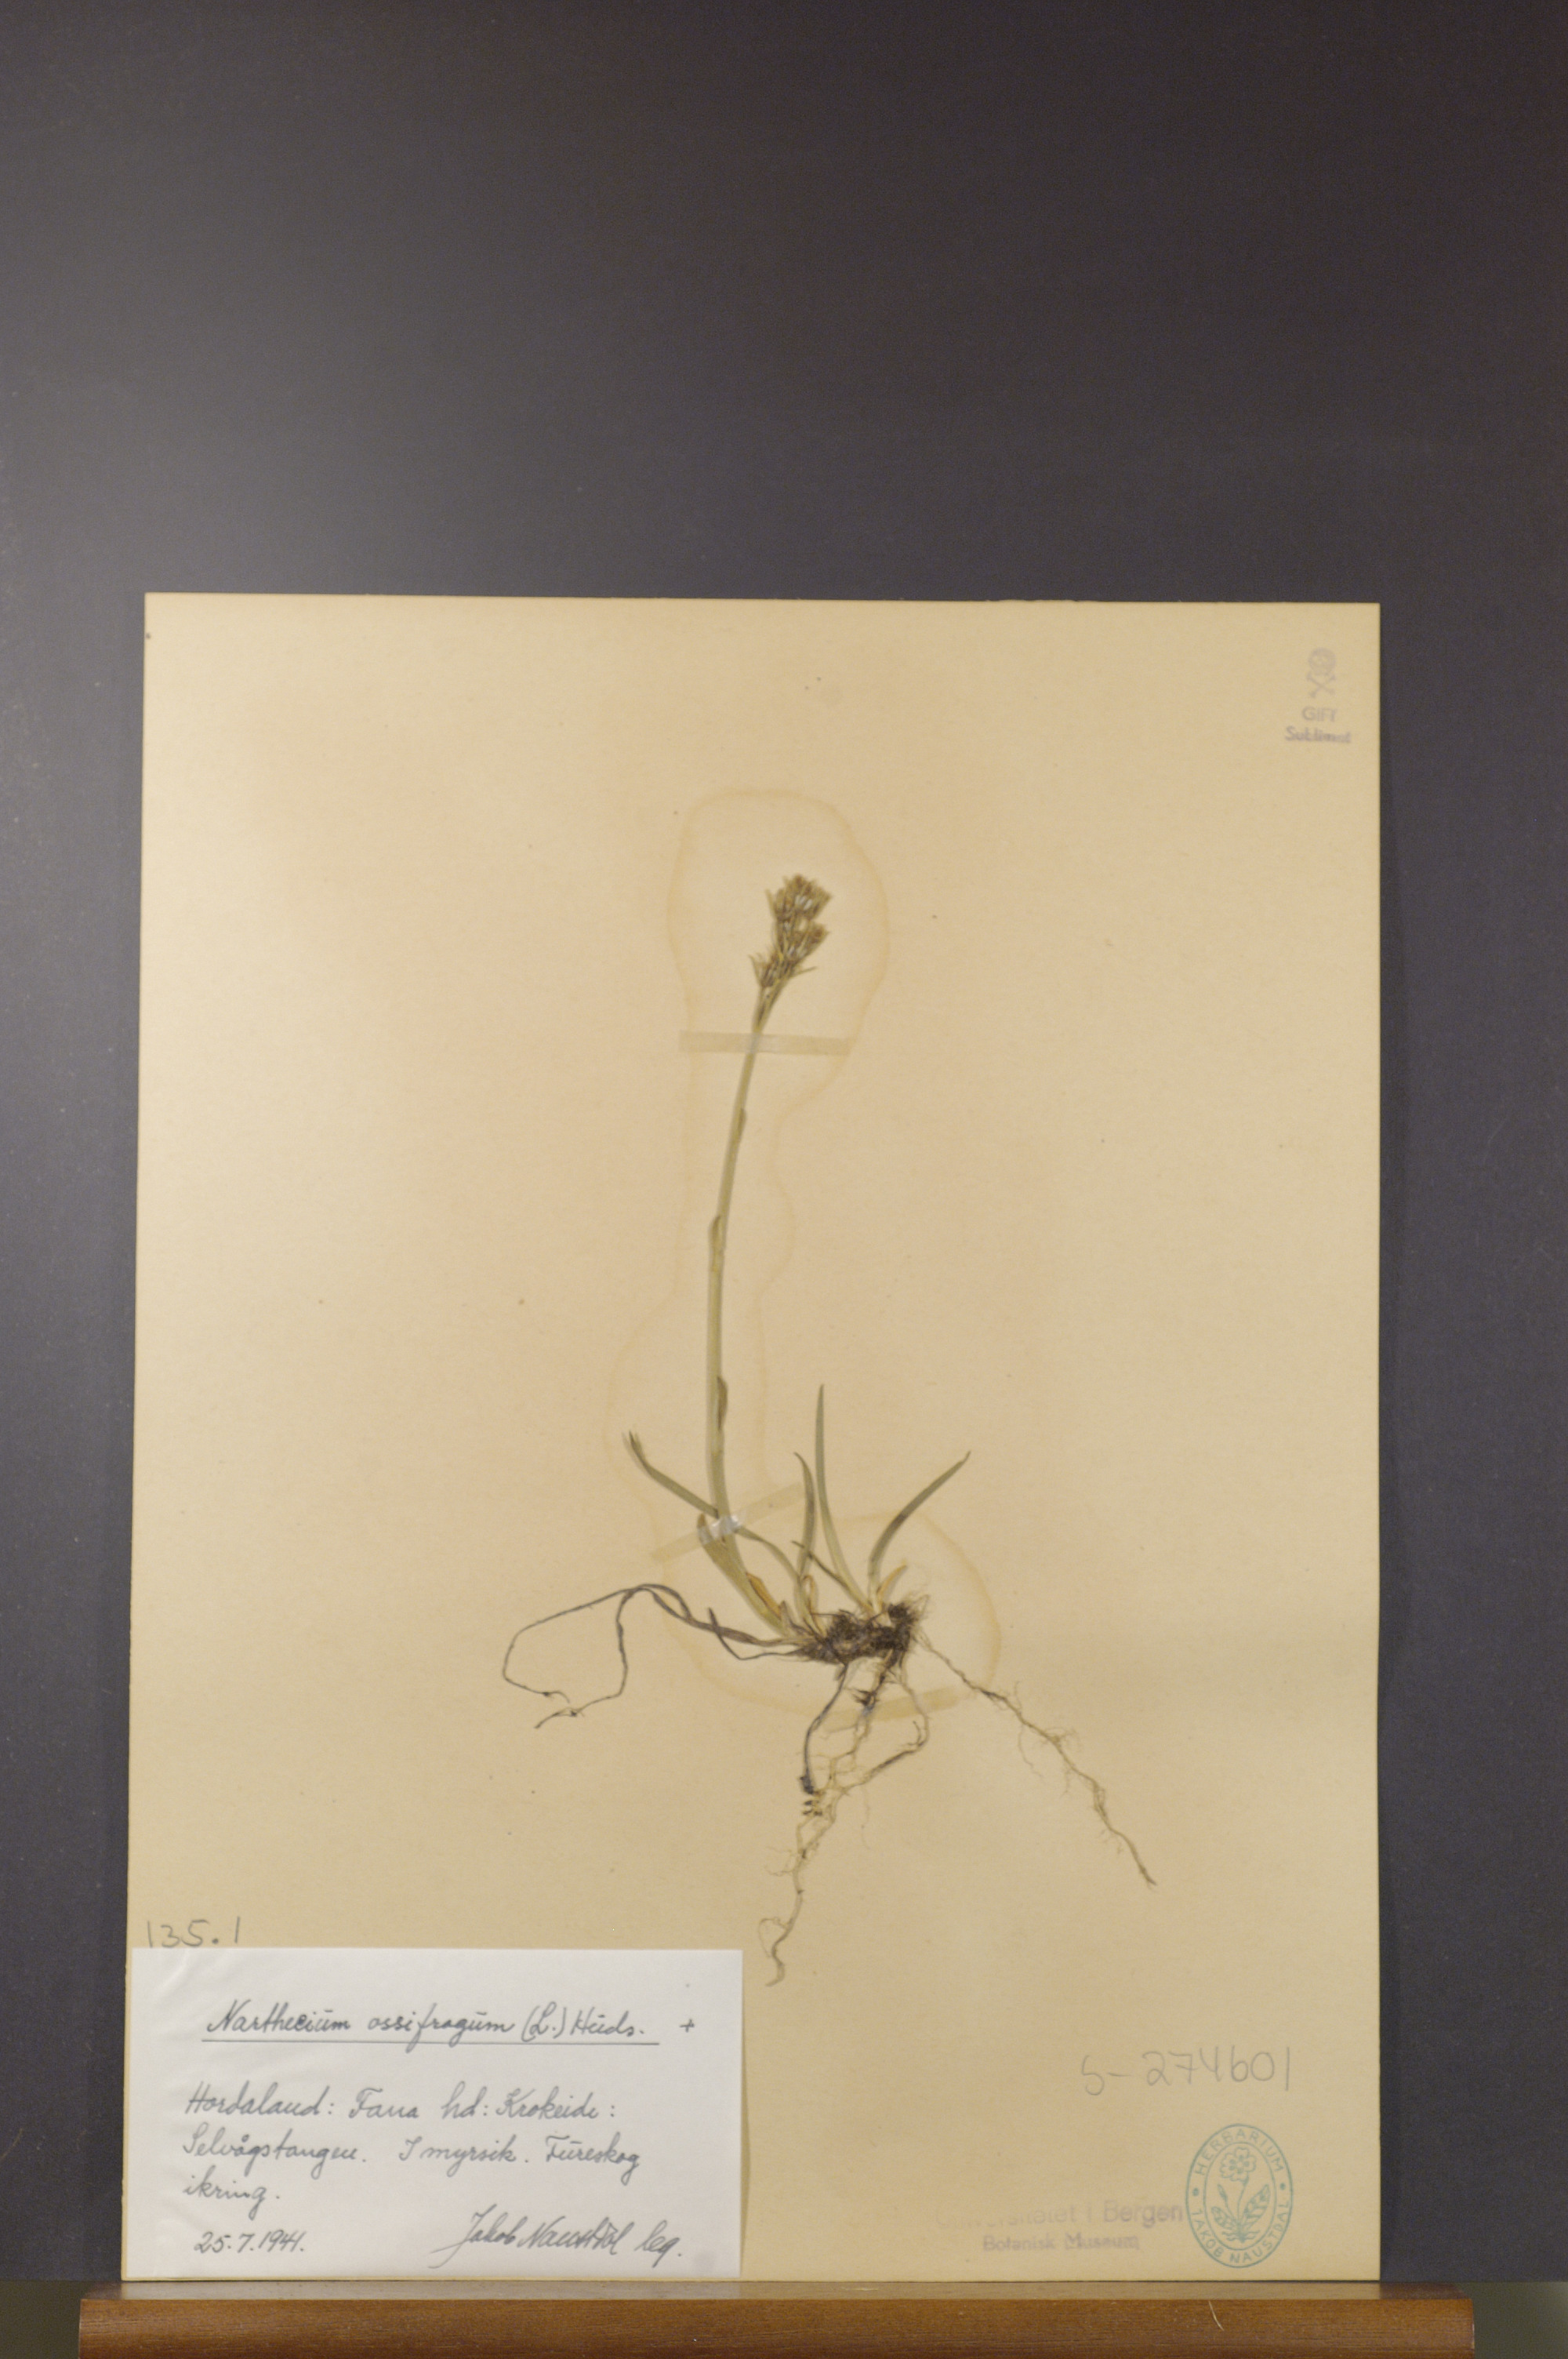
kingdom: Plantae
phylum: Tracheophyta
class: Liliopsida
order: Dioscoreales
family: Nartheciaceae
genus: Narthecium
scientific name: Narthecium ossifragum
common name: Bog asphodel
